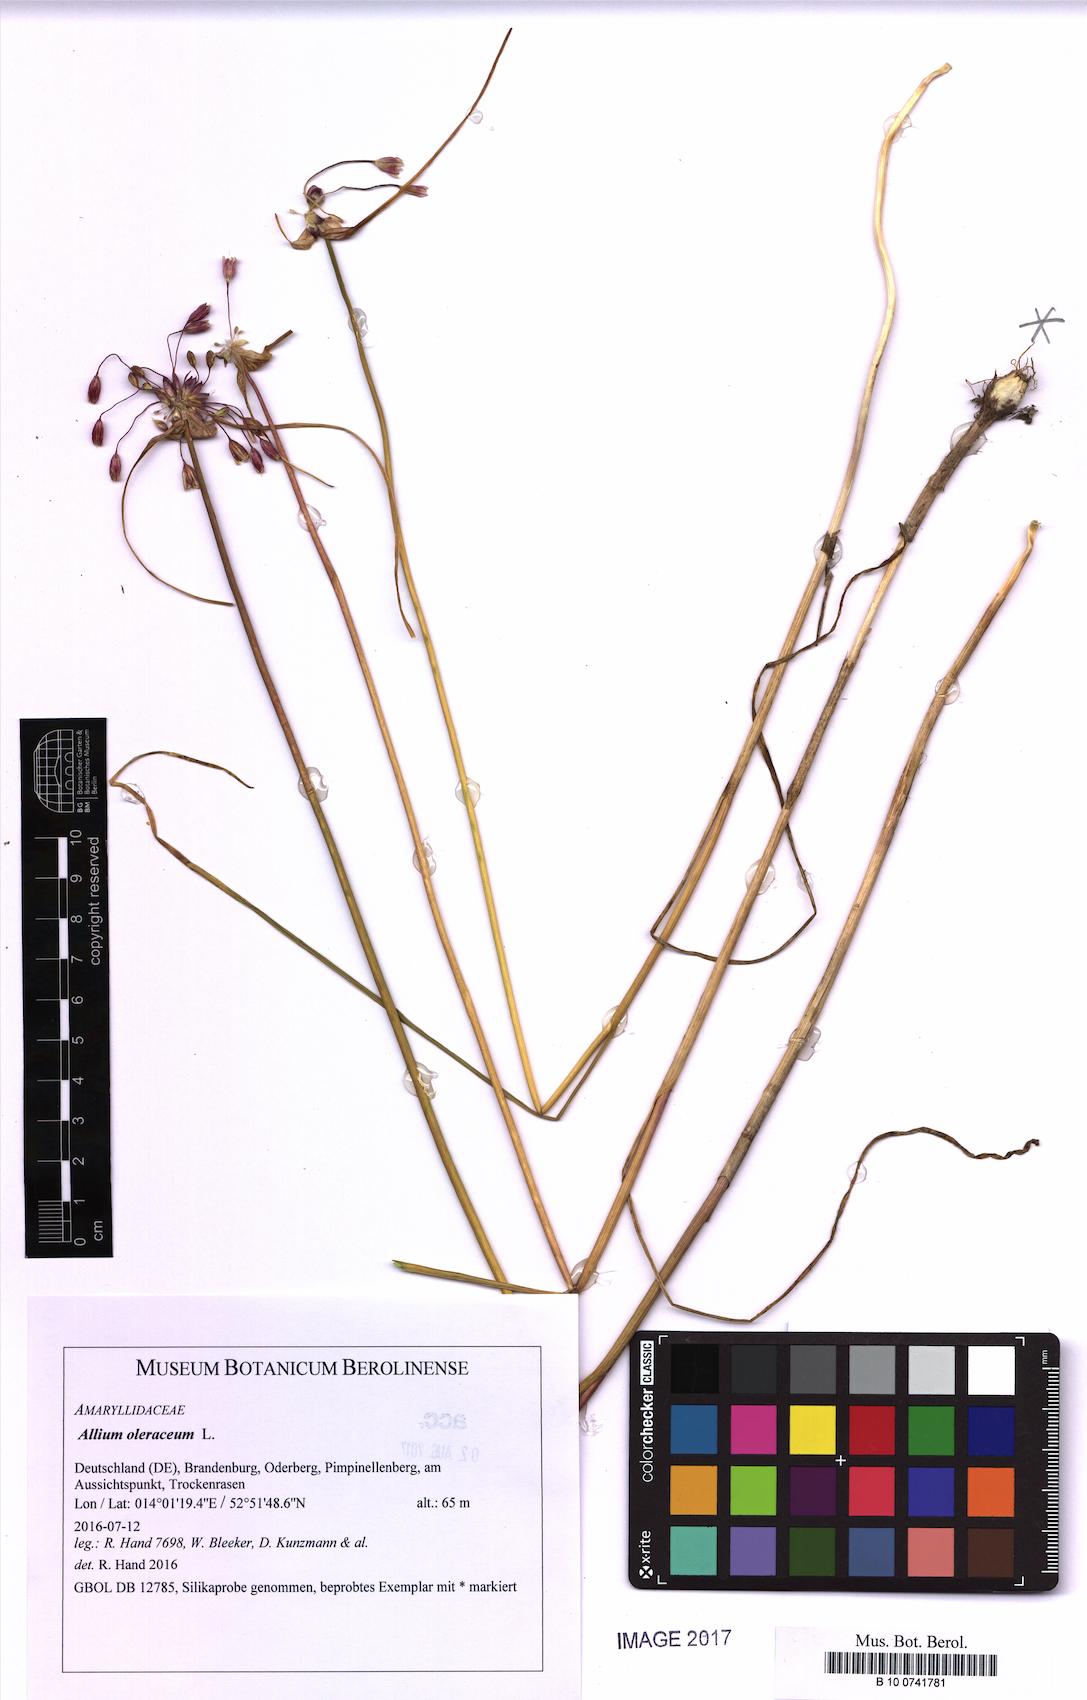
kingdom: Plantae
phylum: Tracheophyta
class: Liliopsida
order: Asparagales
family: Amaryllidaceae
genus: Allium
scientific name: Allium oleraceum
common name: Field garlic
